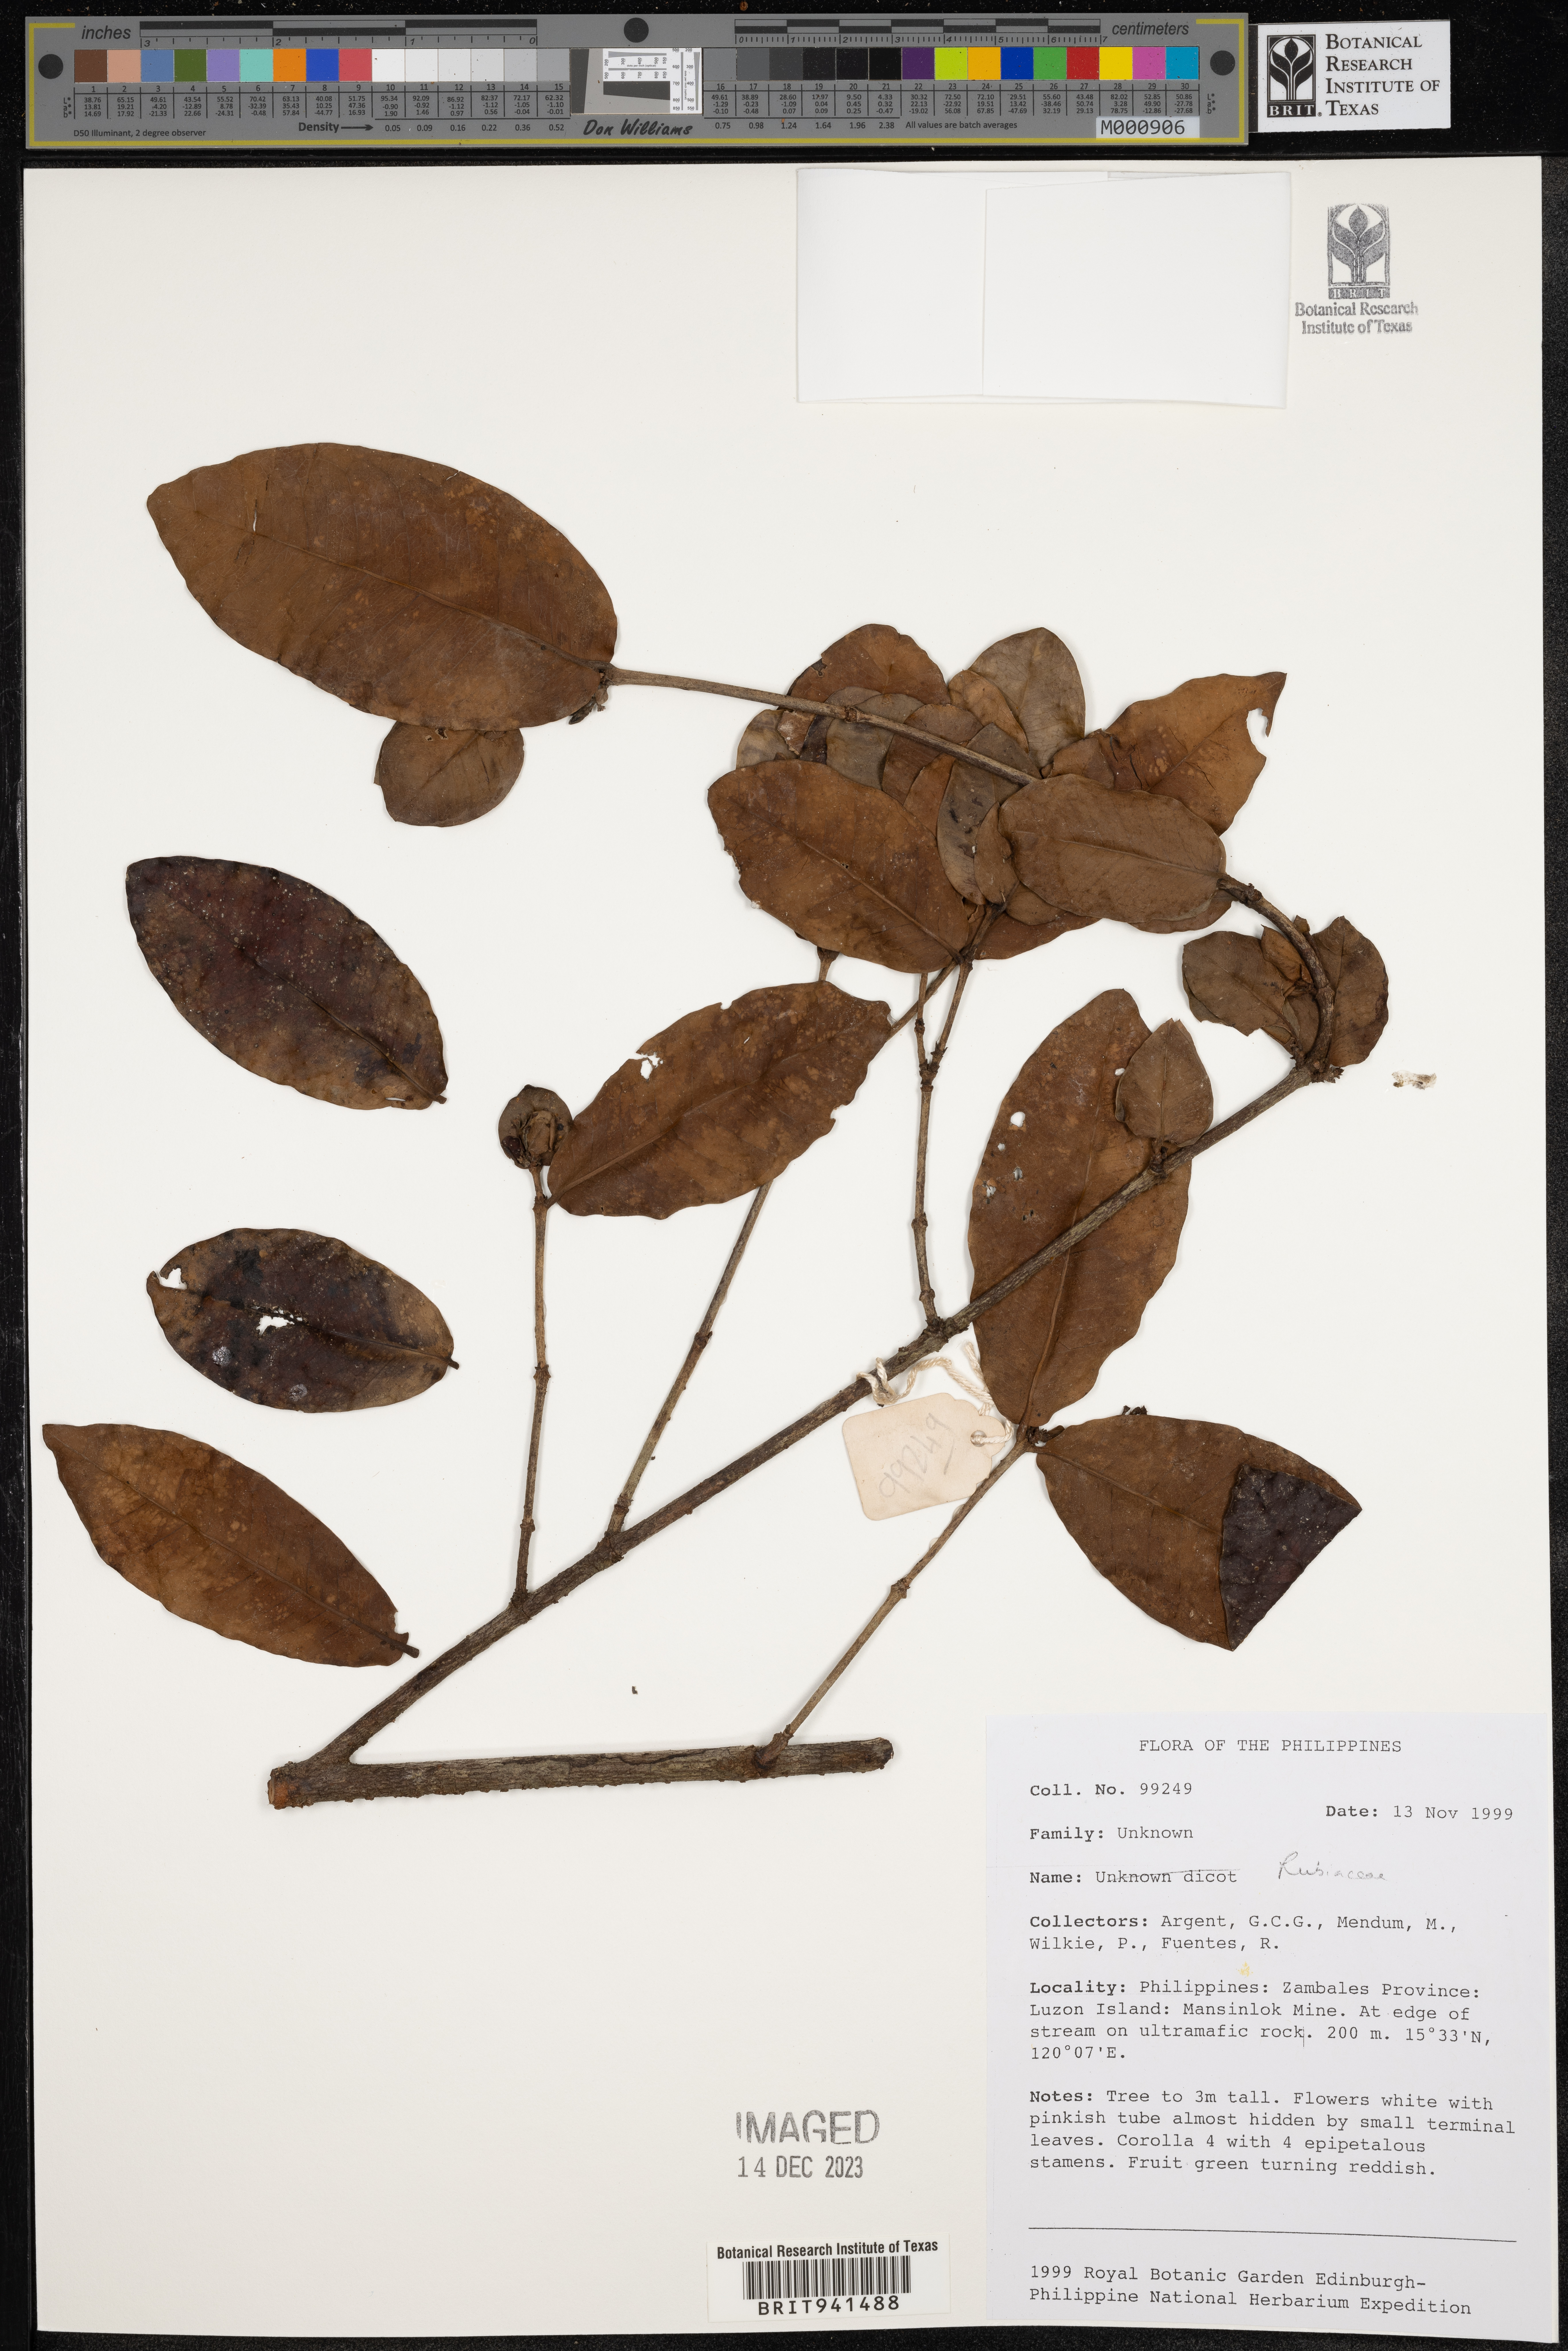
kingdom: Plantae
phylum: Tracheophyta
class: Magnoliopsida
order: Gentianales
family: Rubiaceae
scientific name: Rubiaceae
